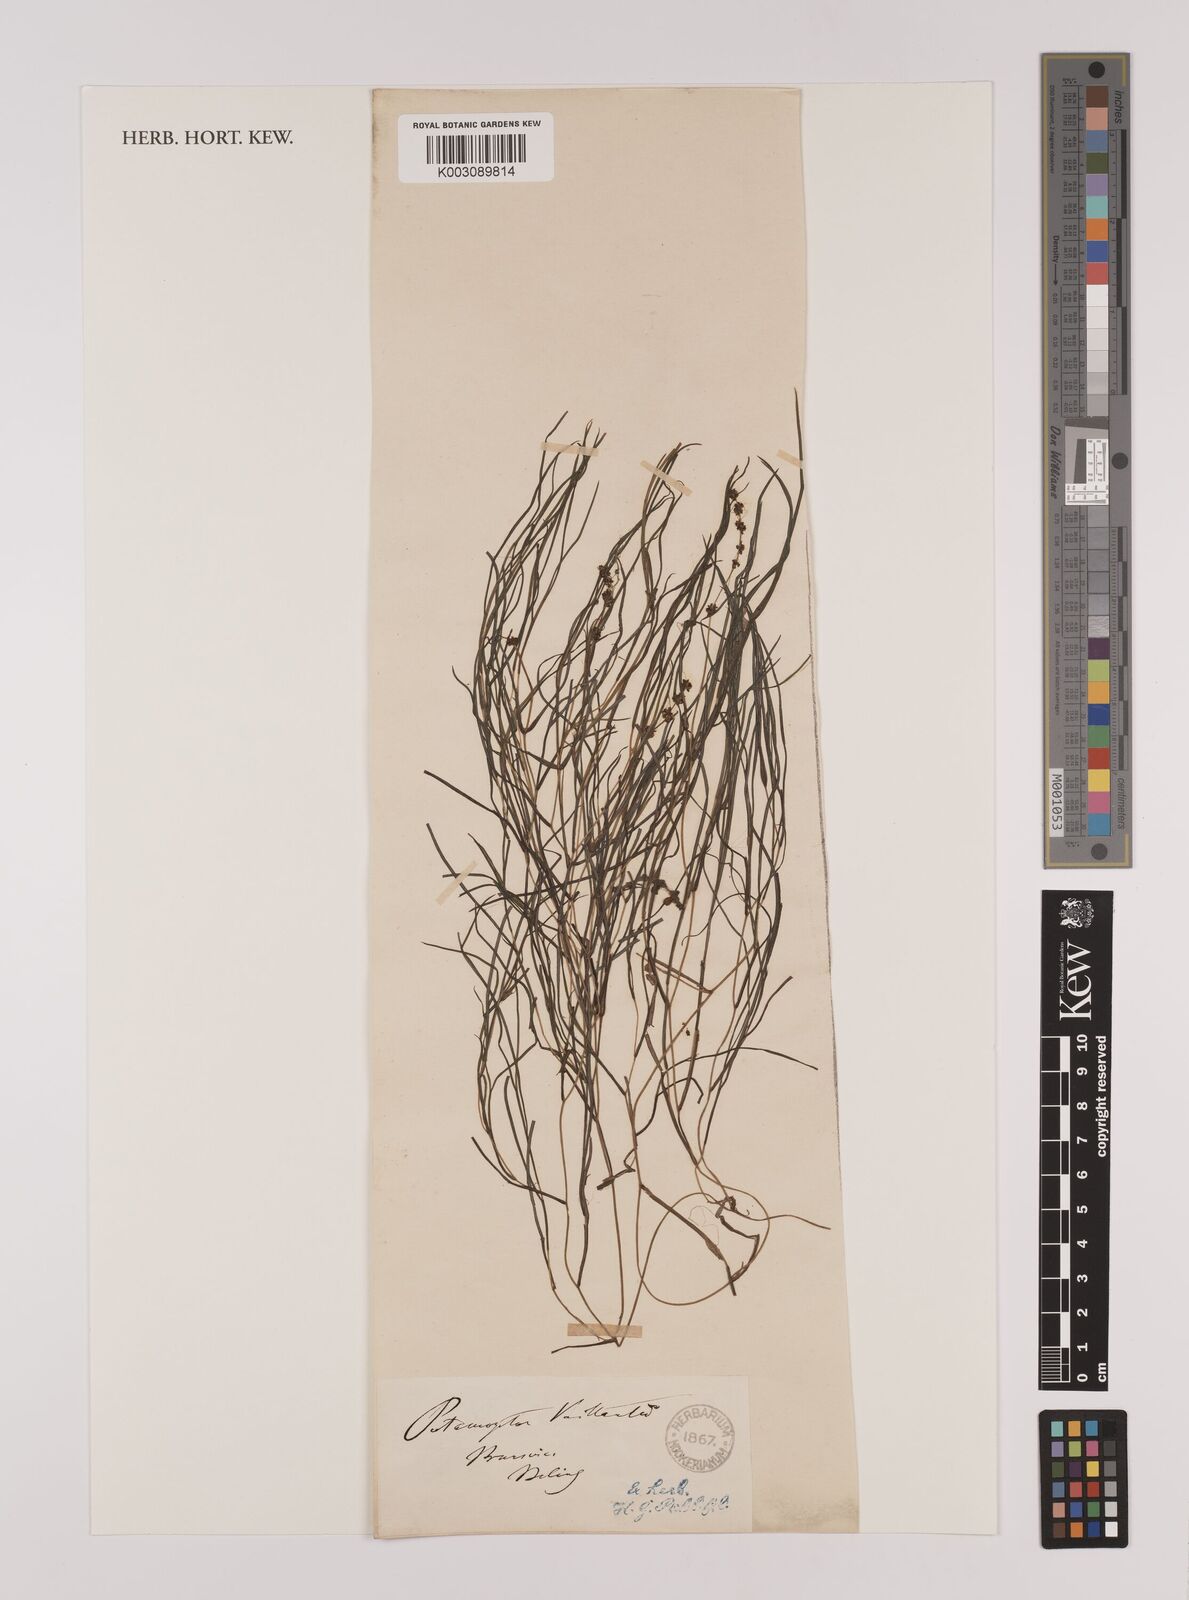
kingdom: Plantae
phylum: Tracheophyta
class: Liliopsida
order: Alismatales
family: Potamogetonaceae
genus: Stuckenia
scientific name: Stuckenia pectinata
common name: Sago pondweed
